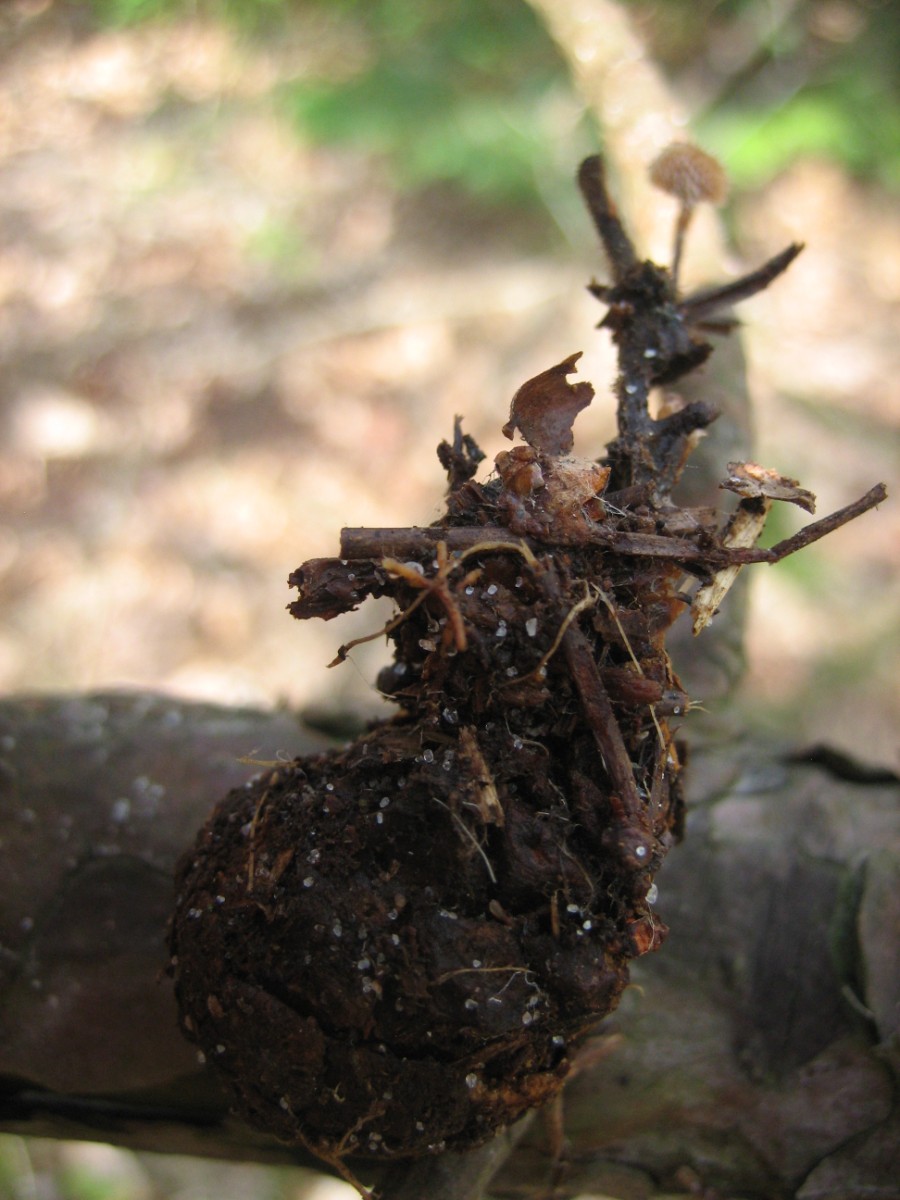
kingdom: Fungi
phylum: Basidiomycota
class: Agaricomycetes
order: Russulales
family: Auriscalpiaceae
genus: Auriscalpium
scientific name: Auriscalpium vulgare
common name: koglepigsvamp
